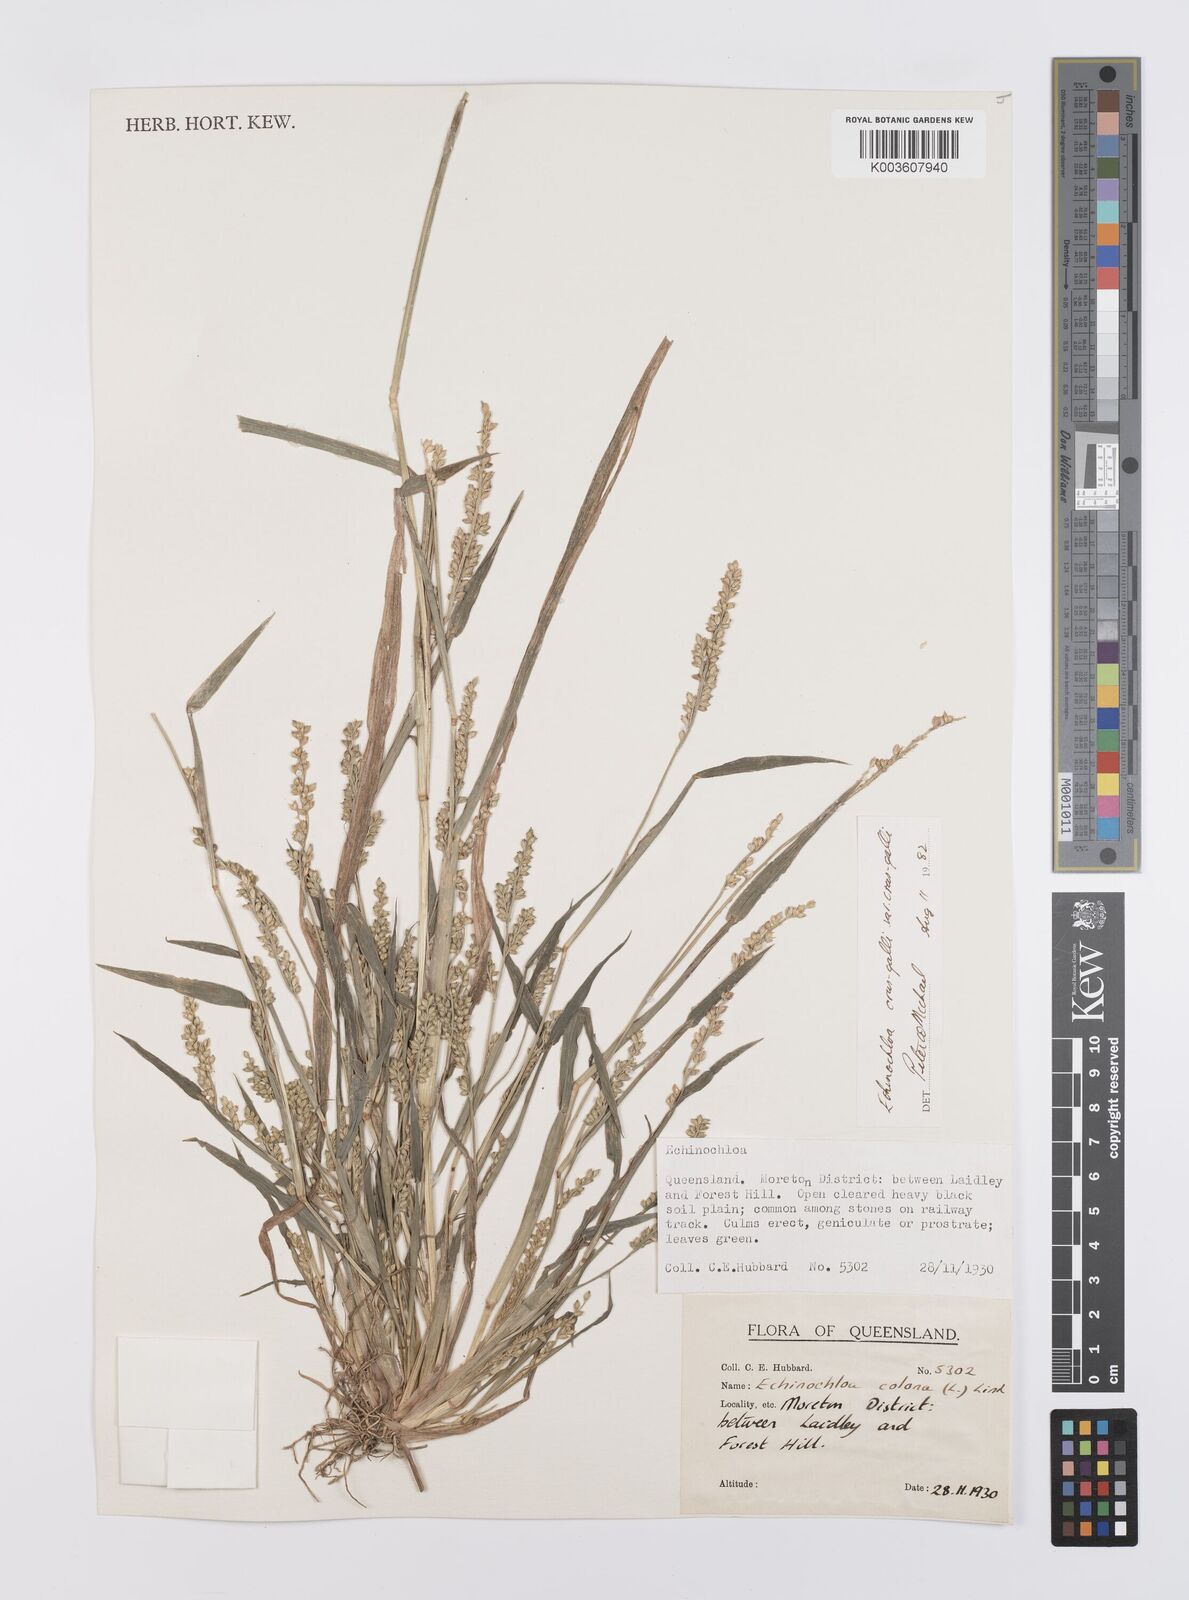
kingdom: Plantae
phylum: Tracheophyta
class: Liliopsida
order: Poales
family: Poaceae
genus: Echinochloa
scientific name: Echinochloa crus-galli
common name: Cockspur
